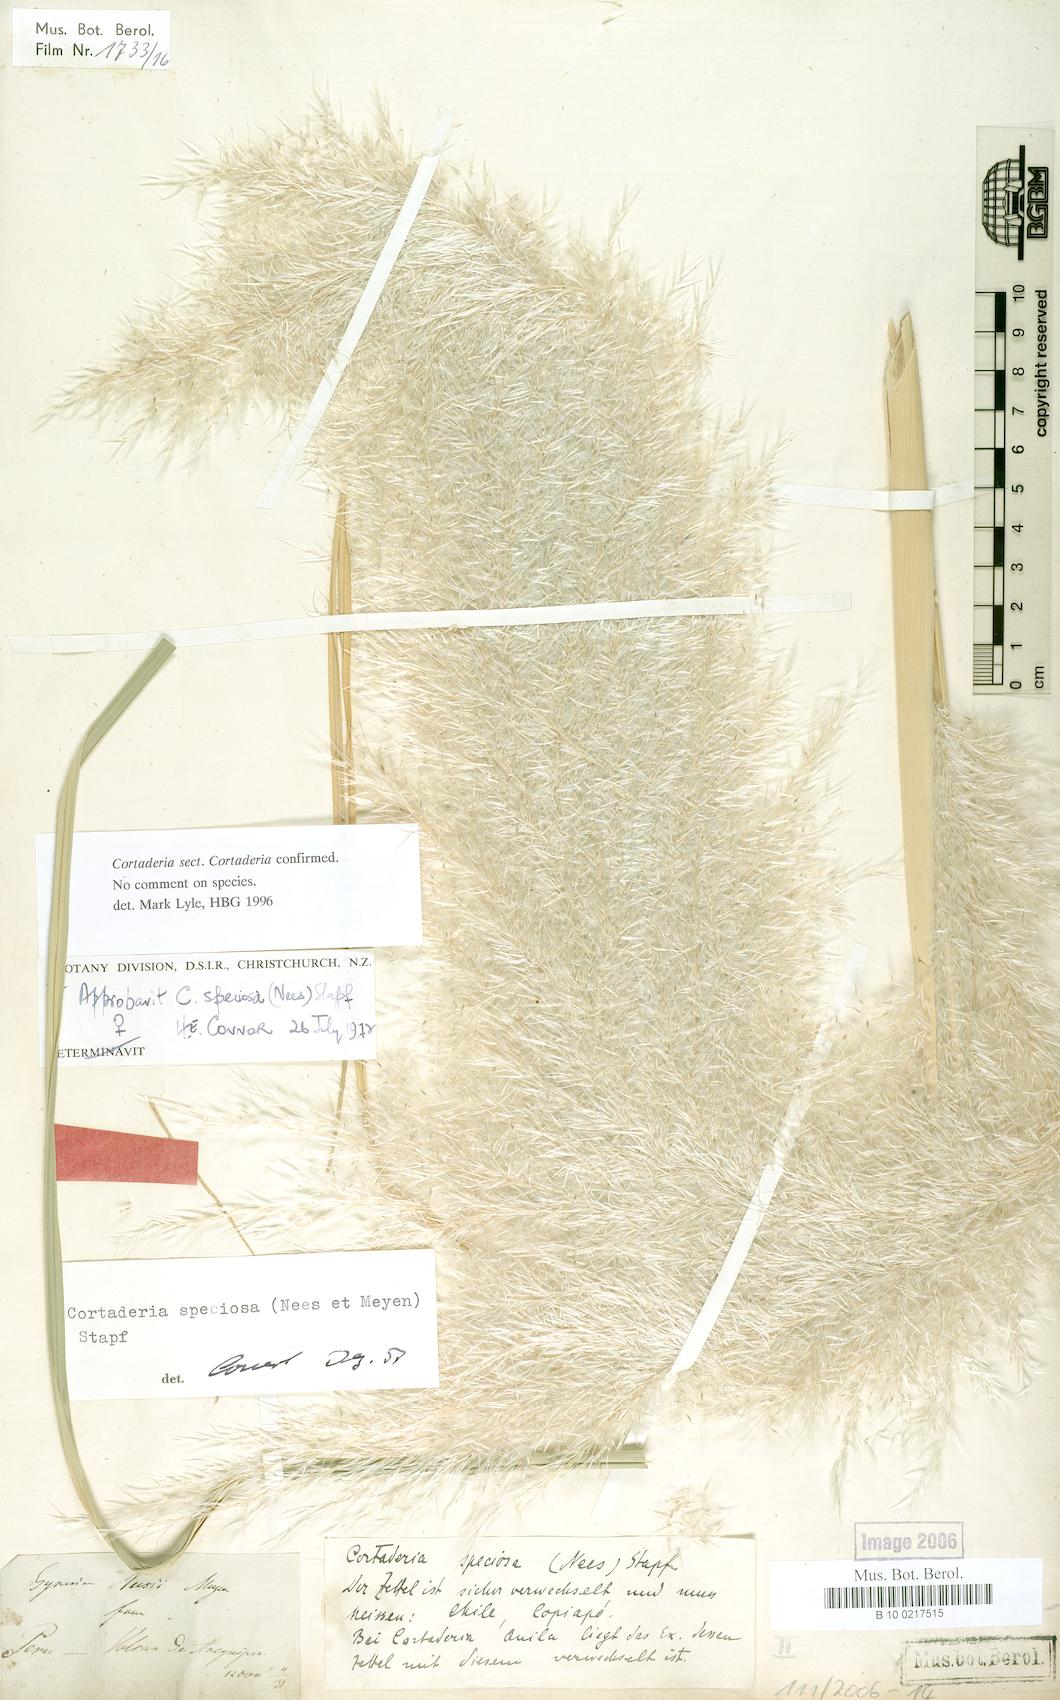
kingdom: Plantae
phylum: Tracheophyta
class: Liliopsida
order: Poales
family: Poaceae
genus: Cortaderia
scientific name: Cortaderia speciosa
